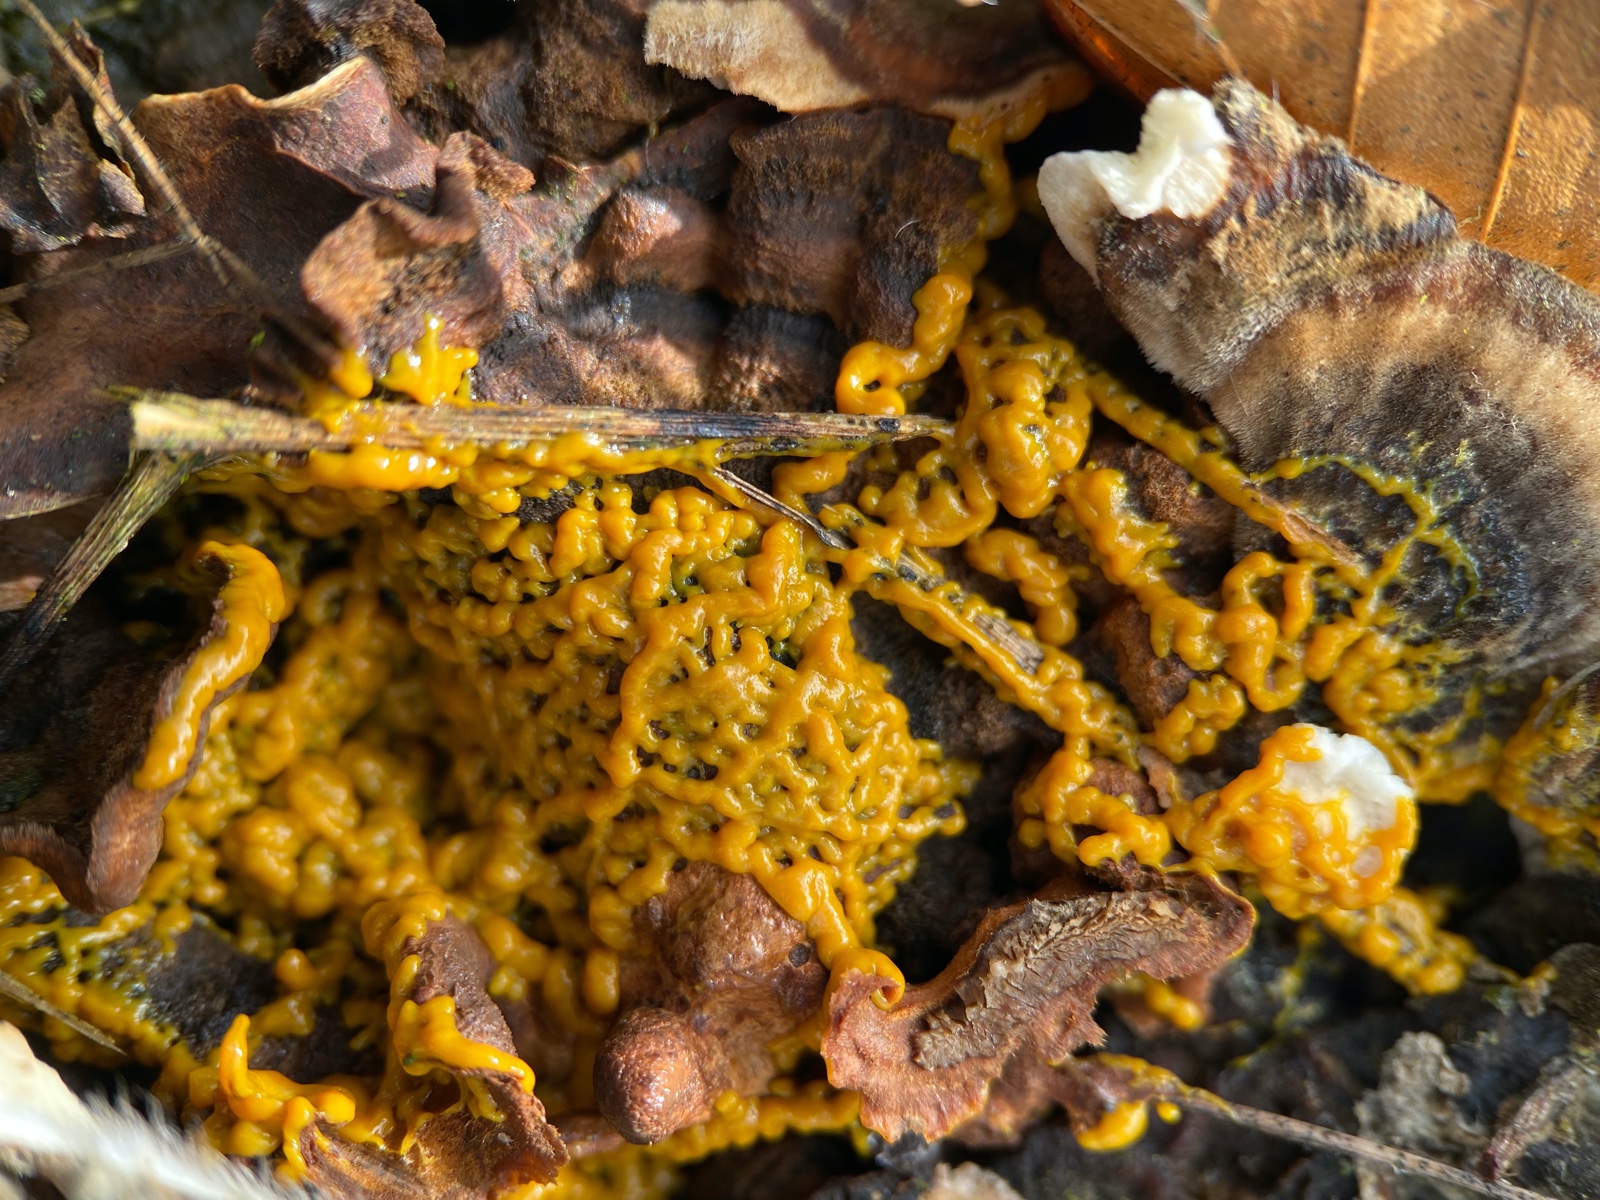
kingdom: Protozoa
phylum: Mycetozoa
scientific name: Mycetozoa
